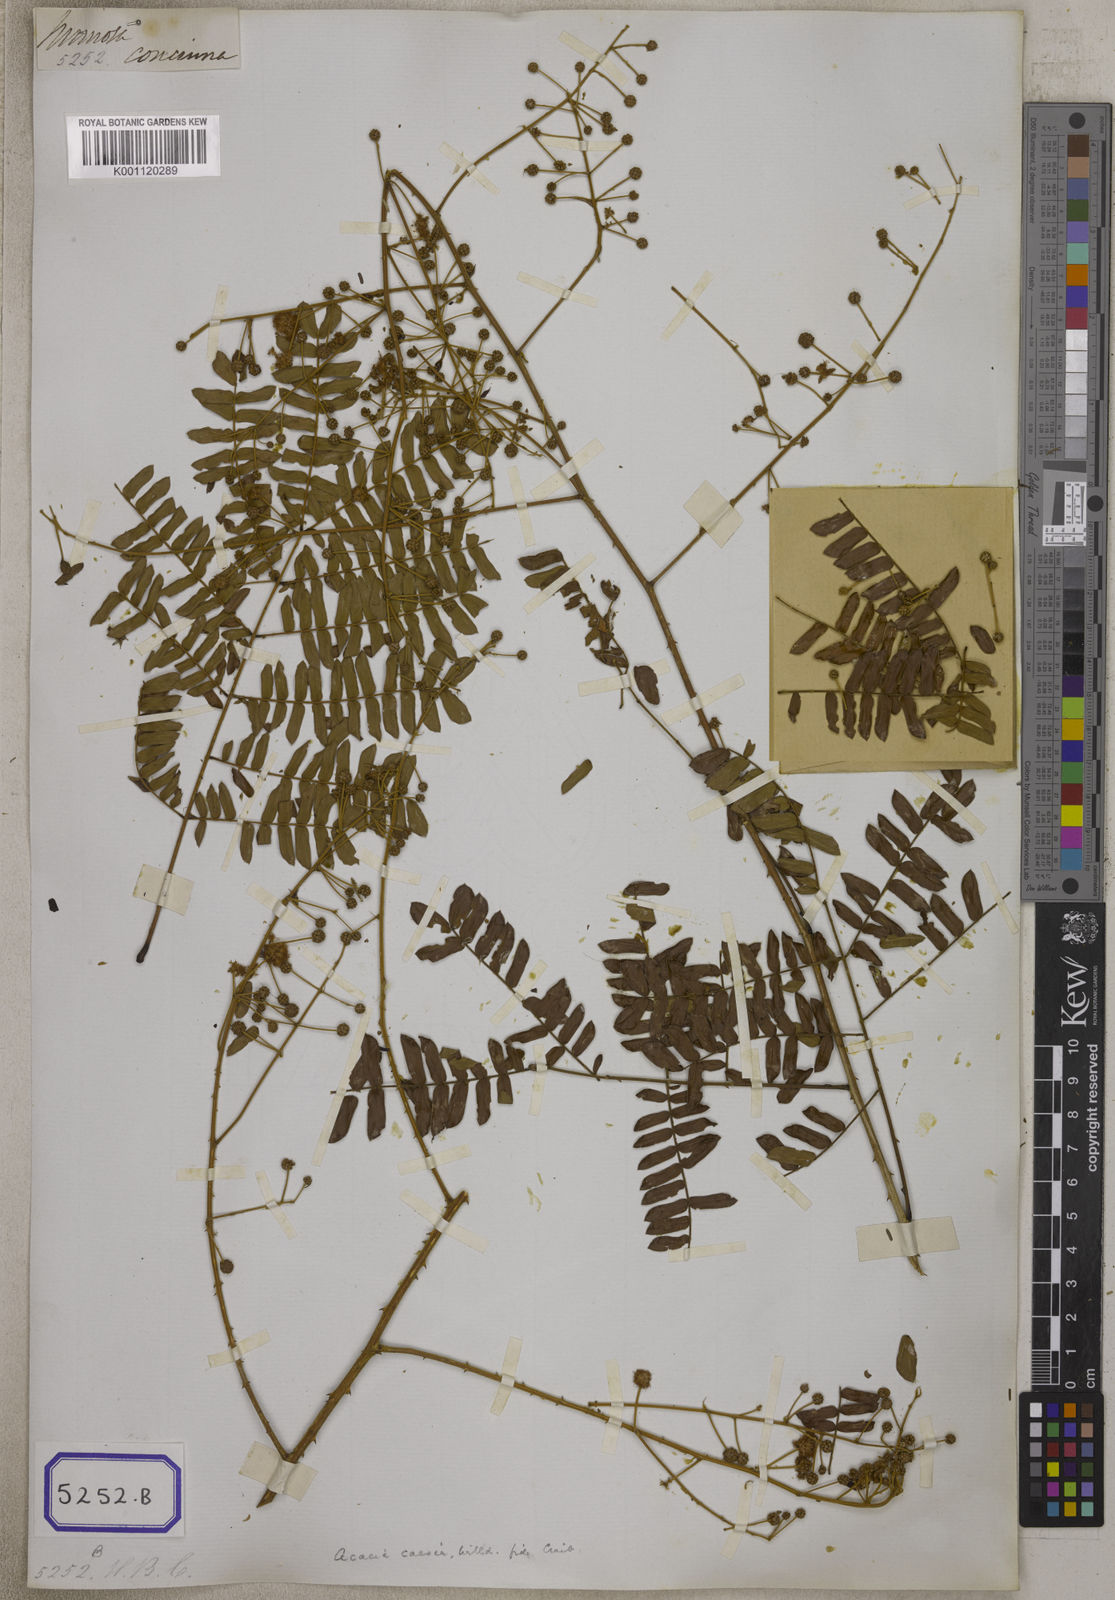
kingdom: Plantae
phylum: Tracheophyta
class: Magnoliopsida
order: Fabales
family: Fabaceae
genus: Acacia
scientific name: Acacia
